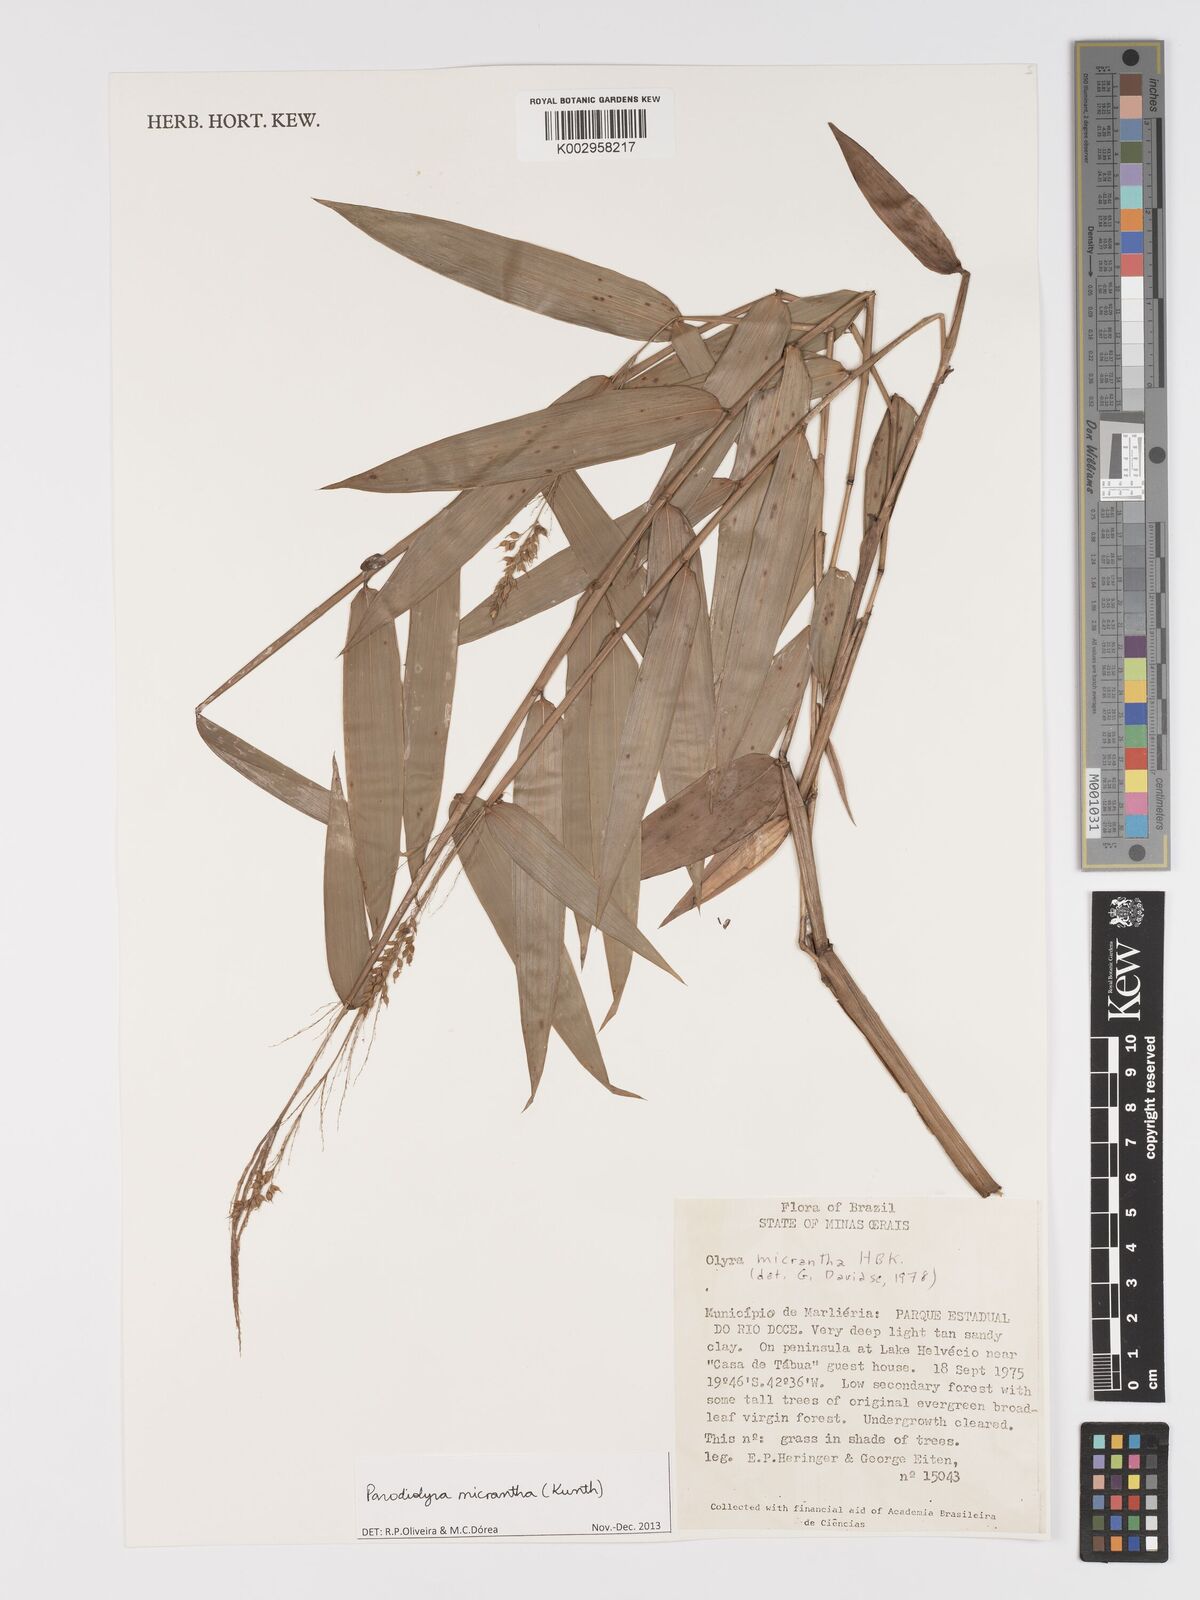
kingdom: Plantae
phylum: Tracheophyta
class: Liliopsida
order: Poales
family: Poaceae
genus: Taquara
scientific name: Taquara micrantha
